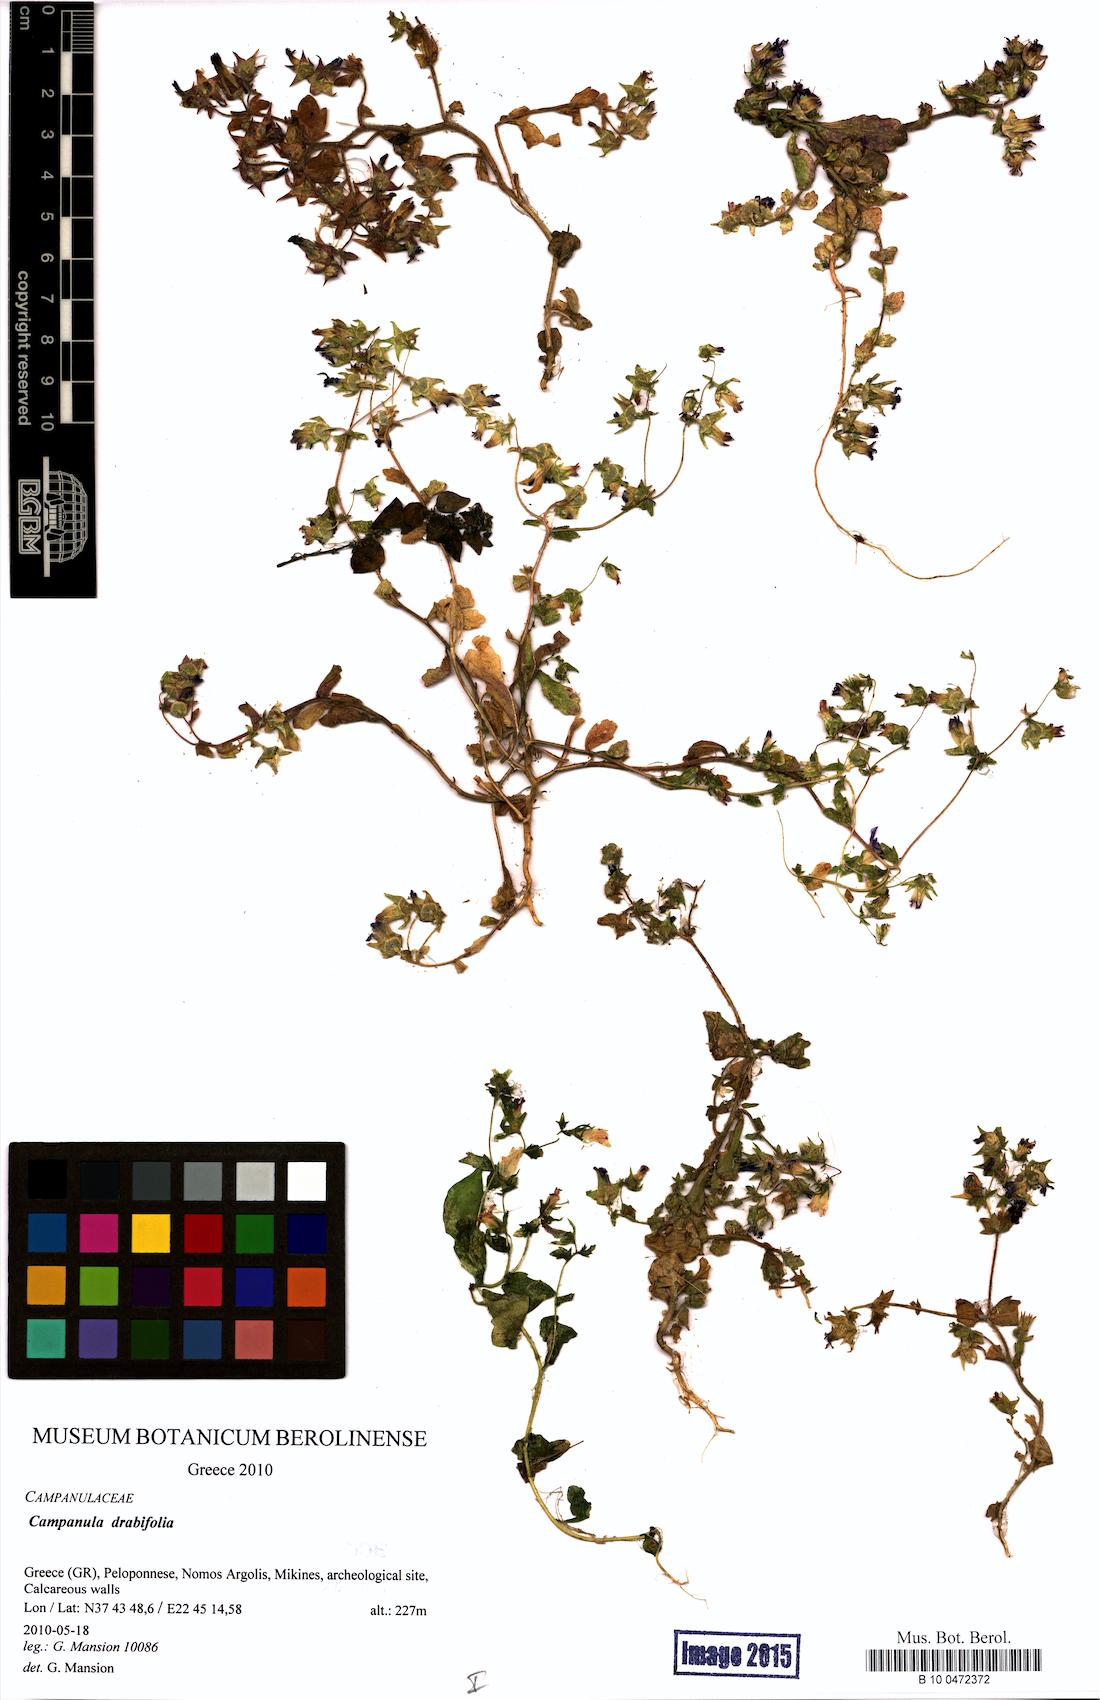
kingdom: Plantae
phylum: Tracheophyta
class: Magnoliopsida
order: Asterales
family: Campanulaceae
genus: Campanula
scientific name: Campanula drabifolia
